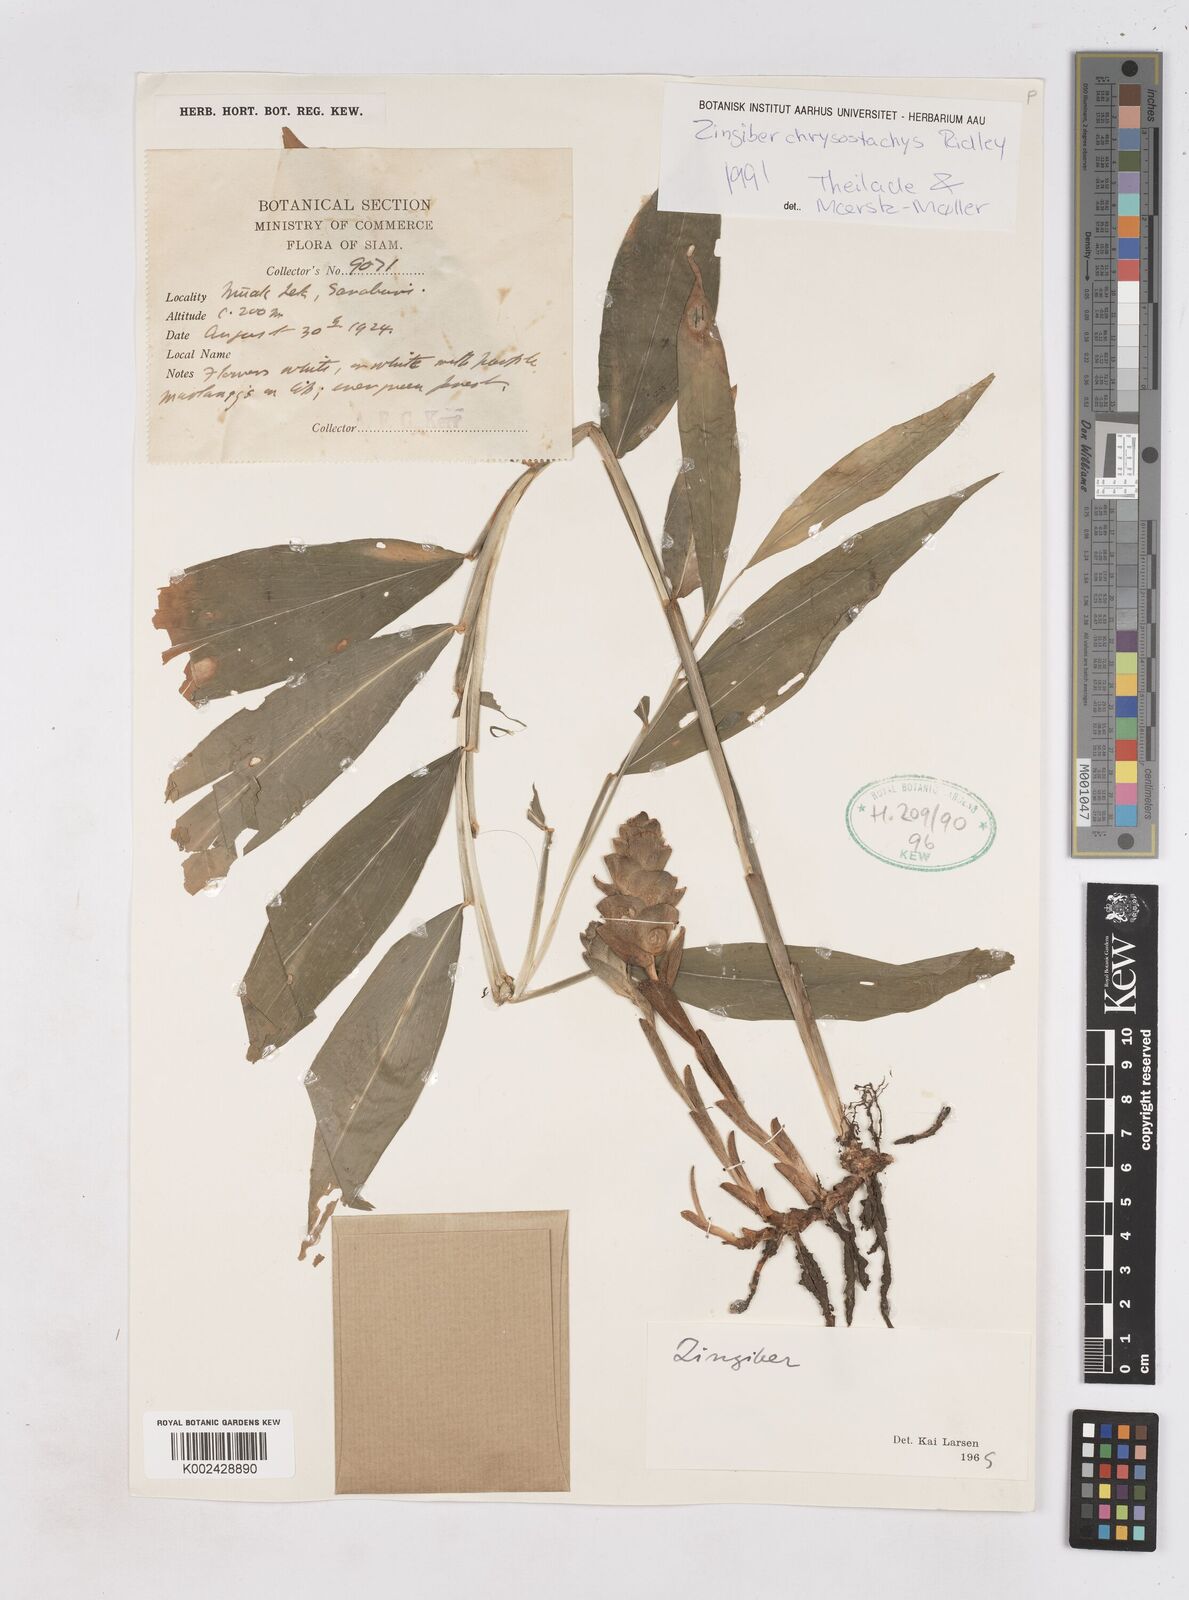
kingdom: Plantae
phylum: Tracheophyta
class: Liliopsida
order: Zingiberales
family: Zingiberaceae
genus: Zingiber
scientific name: Zingiber chrysostachys
